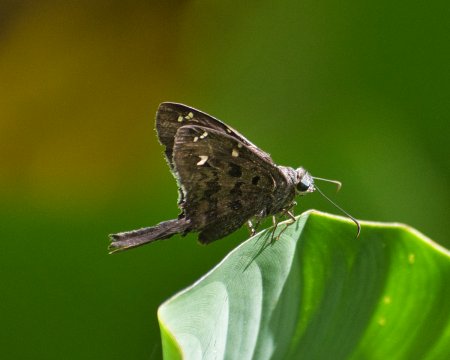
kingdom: Animalia
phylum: Arthropoda
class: Insecta
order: Lepidoptera
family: Hesperiidae
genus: Urbanus
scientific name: Urbanus dorantes
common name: Dorantes Longtail
